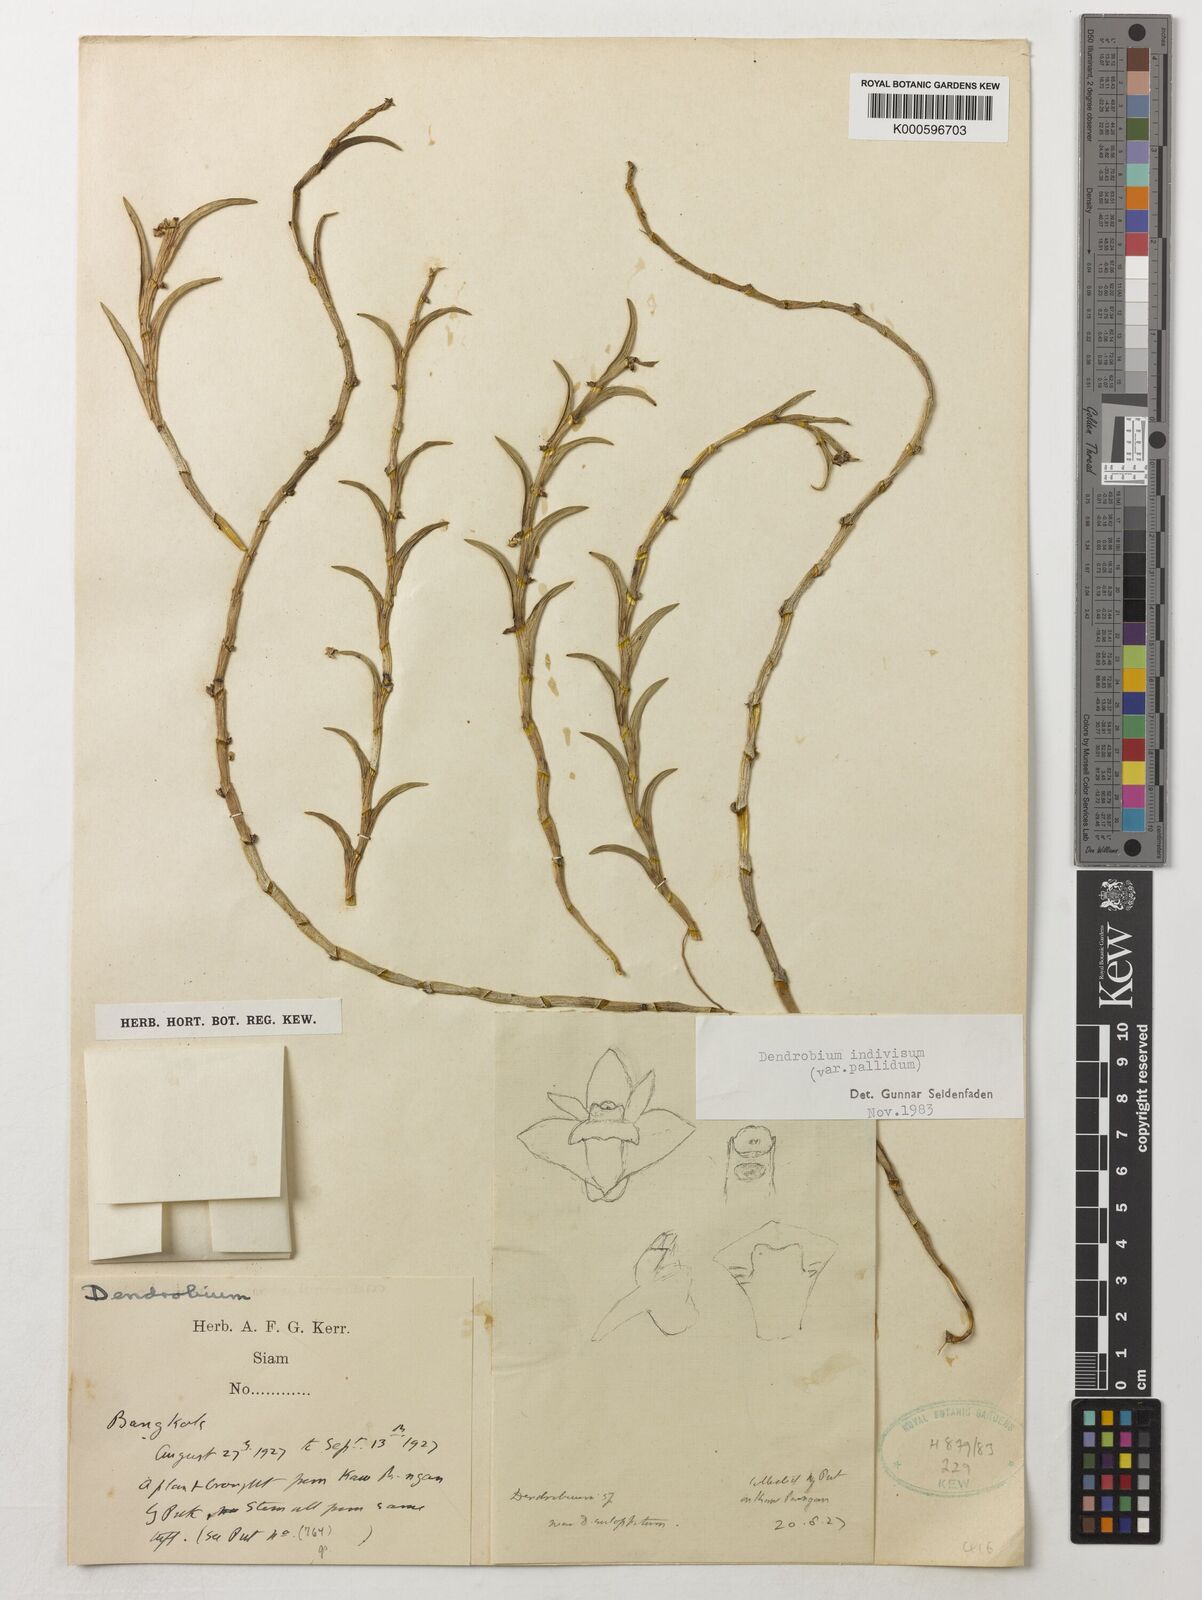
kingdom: Plantae
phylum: Tracheophyta
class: Liliopsida
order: Asparagales
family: Orchidaceae
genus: Dendrobium
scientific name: Dendrobium indivisum
